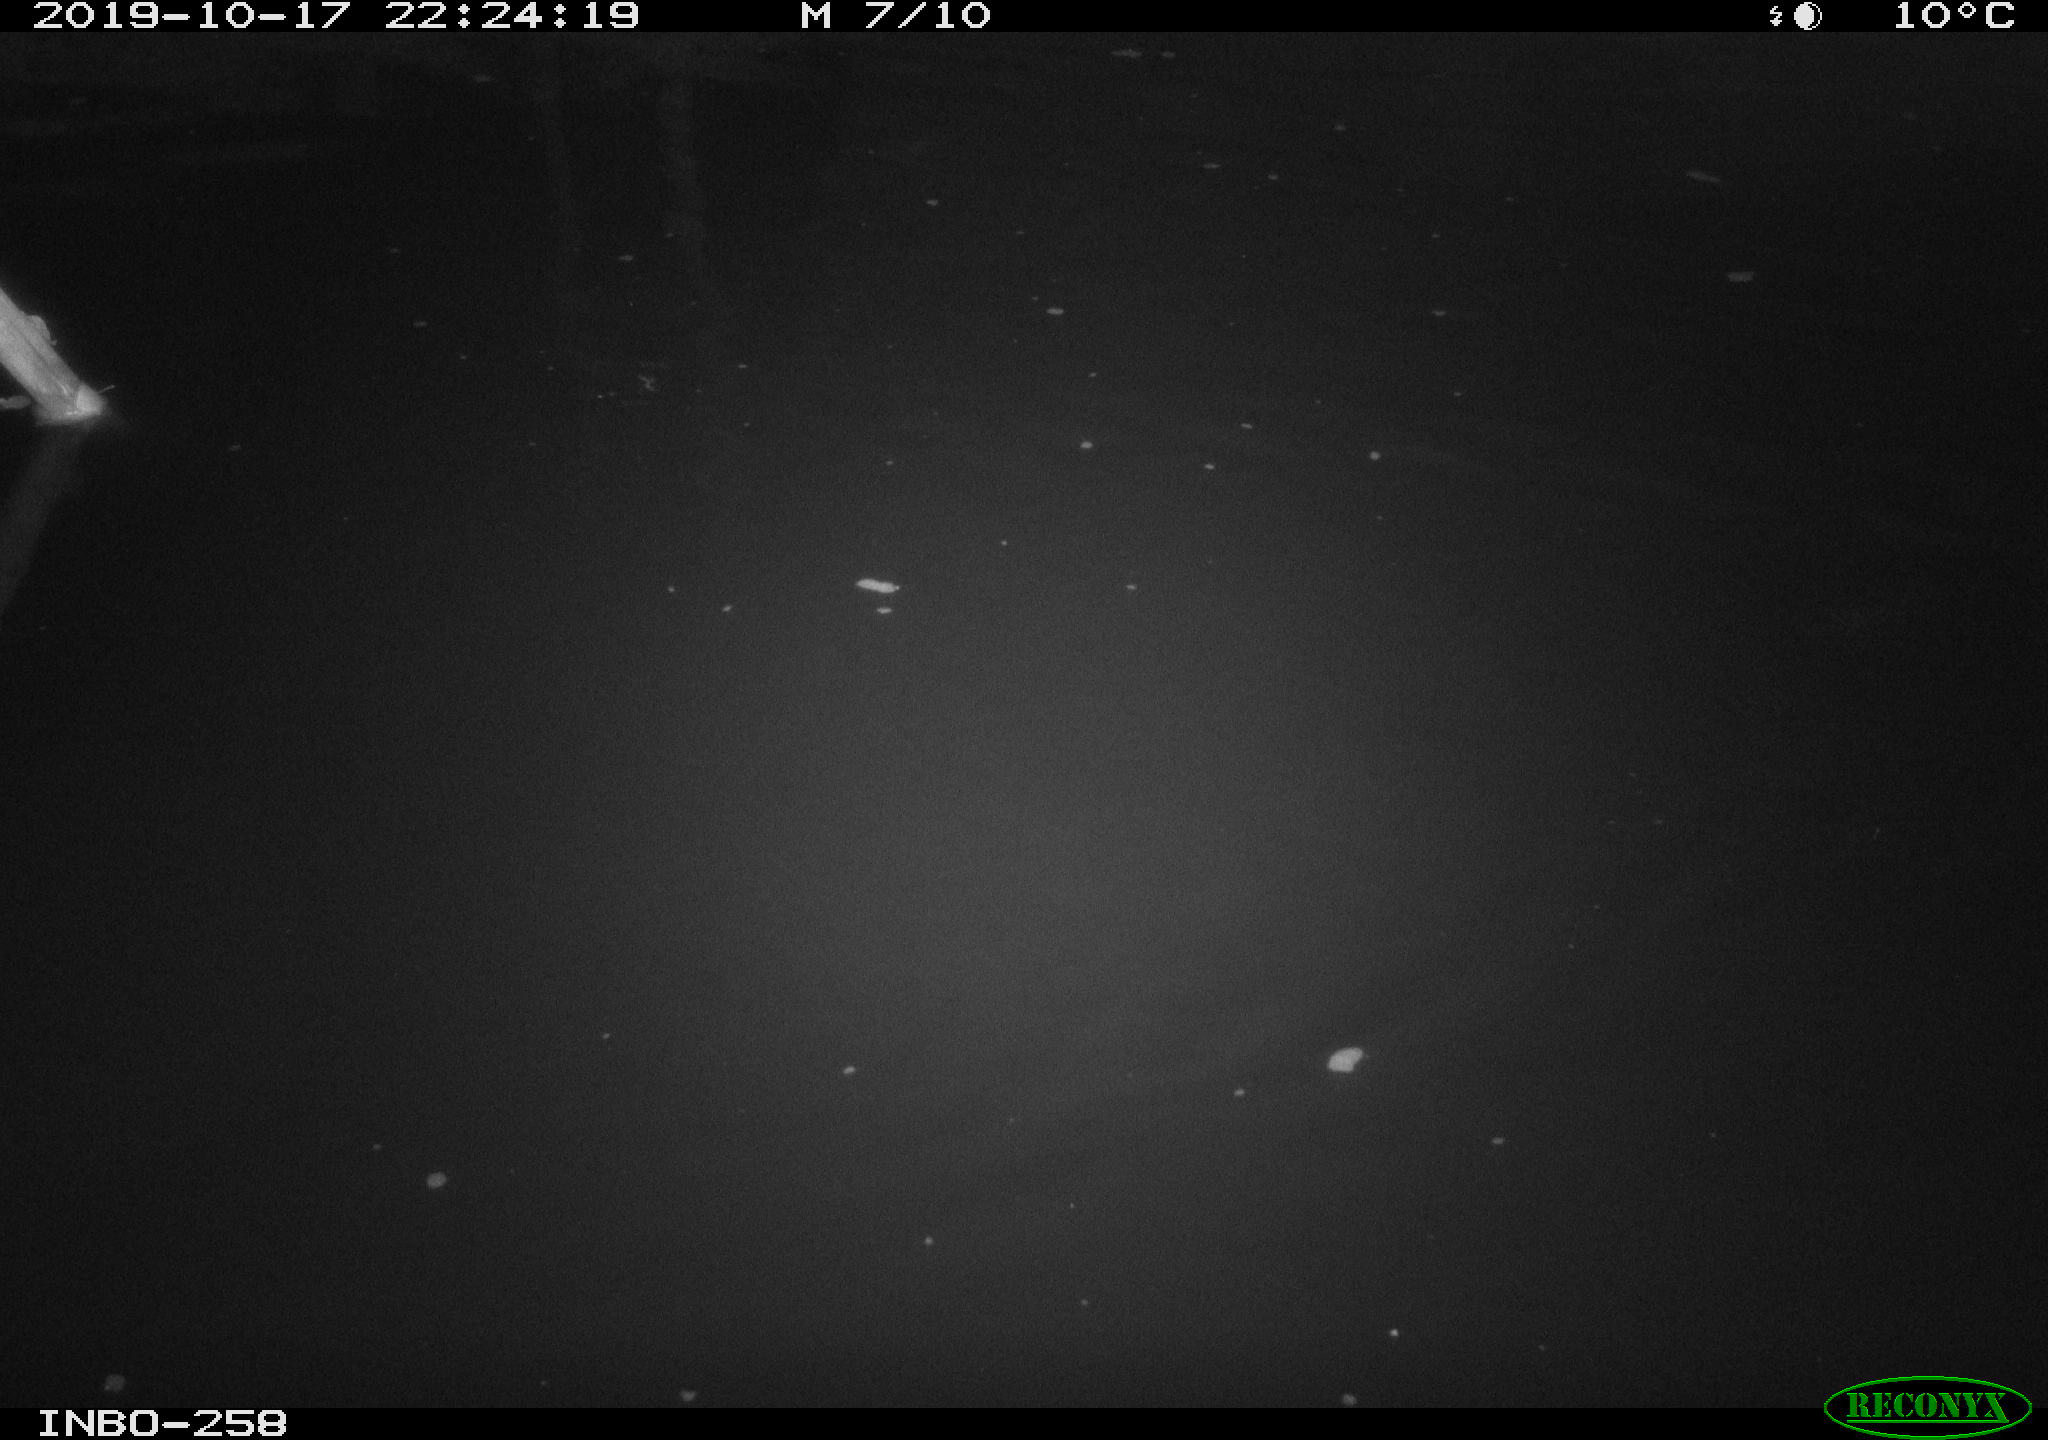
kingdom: Animalia
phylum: Chordata
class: Aves
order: Anseriformes
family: Anatidae
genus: Anas
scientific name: Anas platyrhynchos
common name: Mallard
